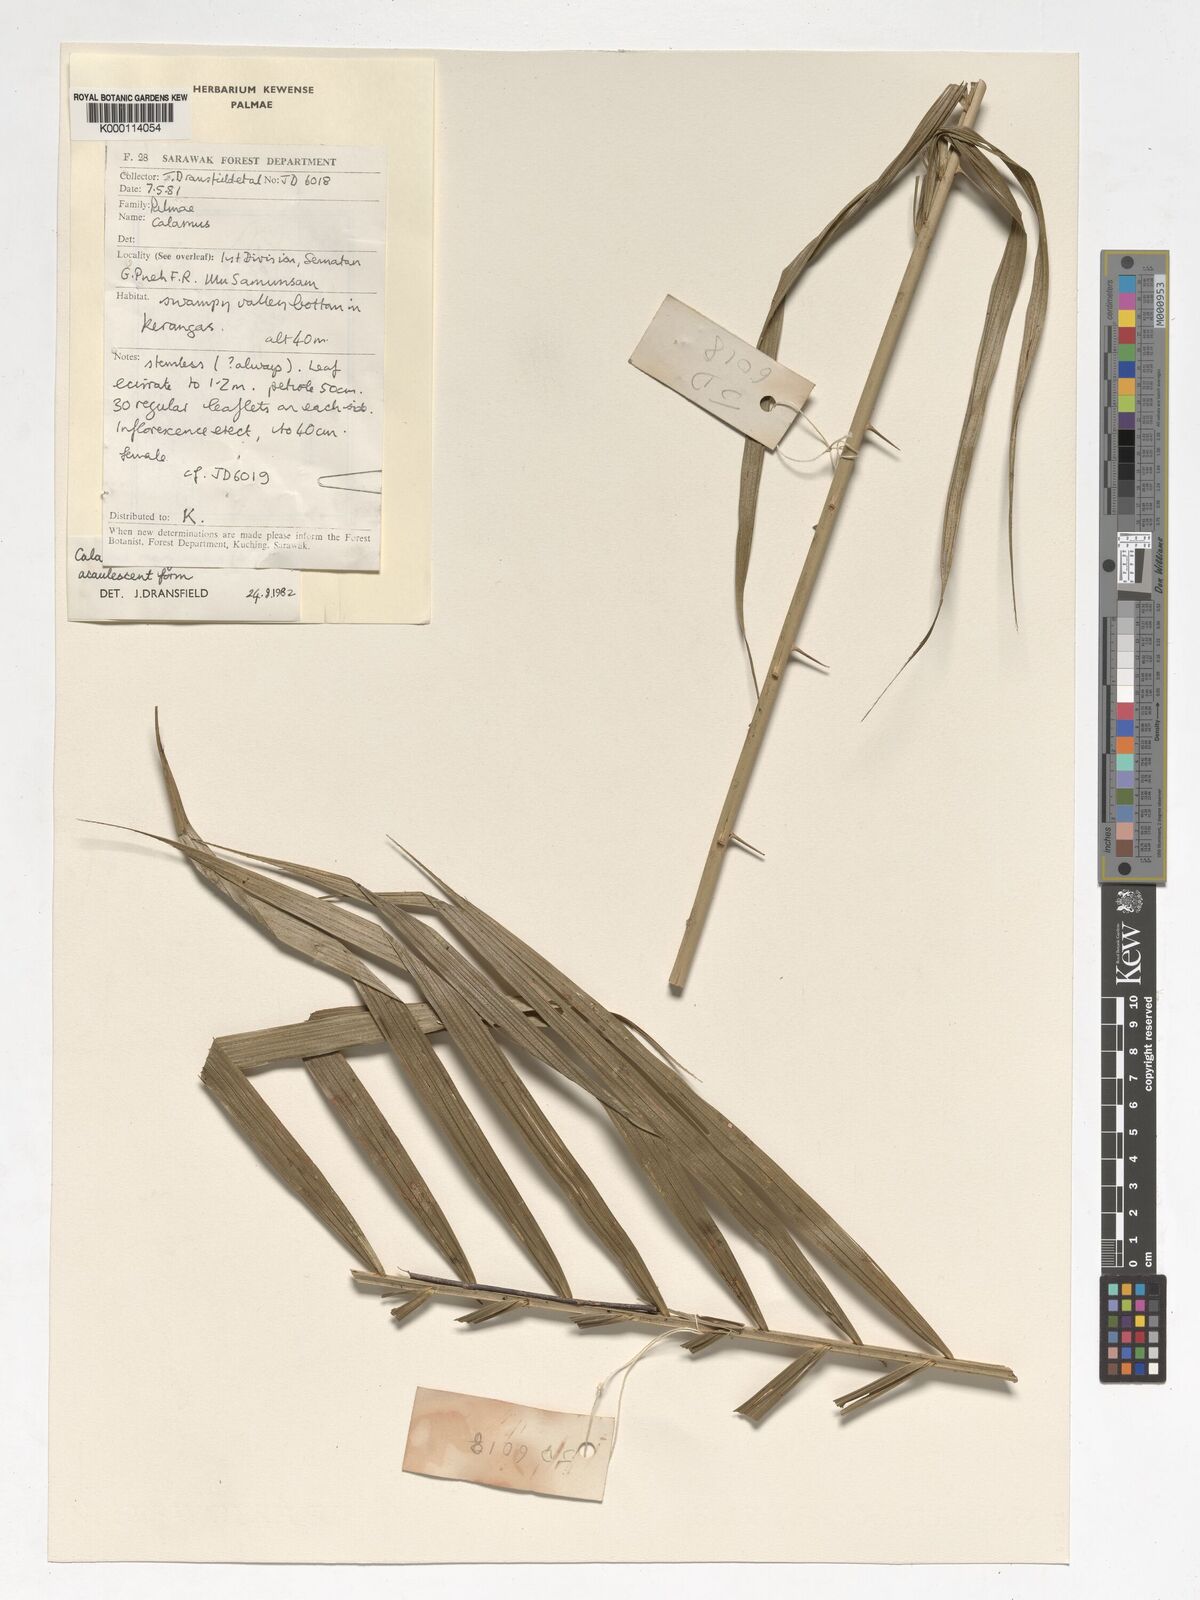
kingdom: Plantae
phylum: Tracheophyta
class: Liliopsida
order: Arecales
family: Arecaceae
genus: Calamus
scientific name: Calamus
